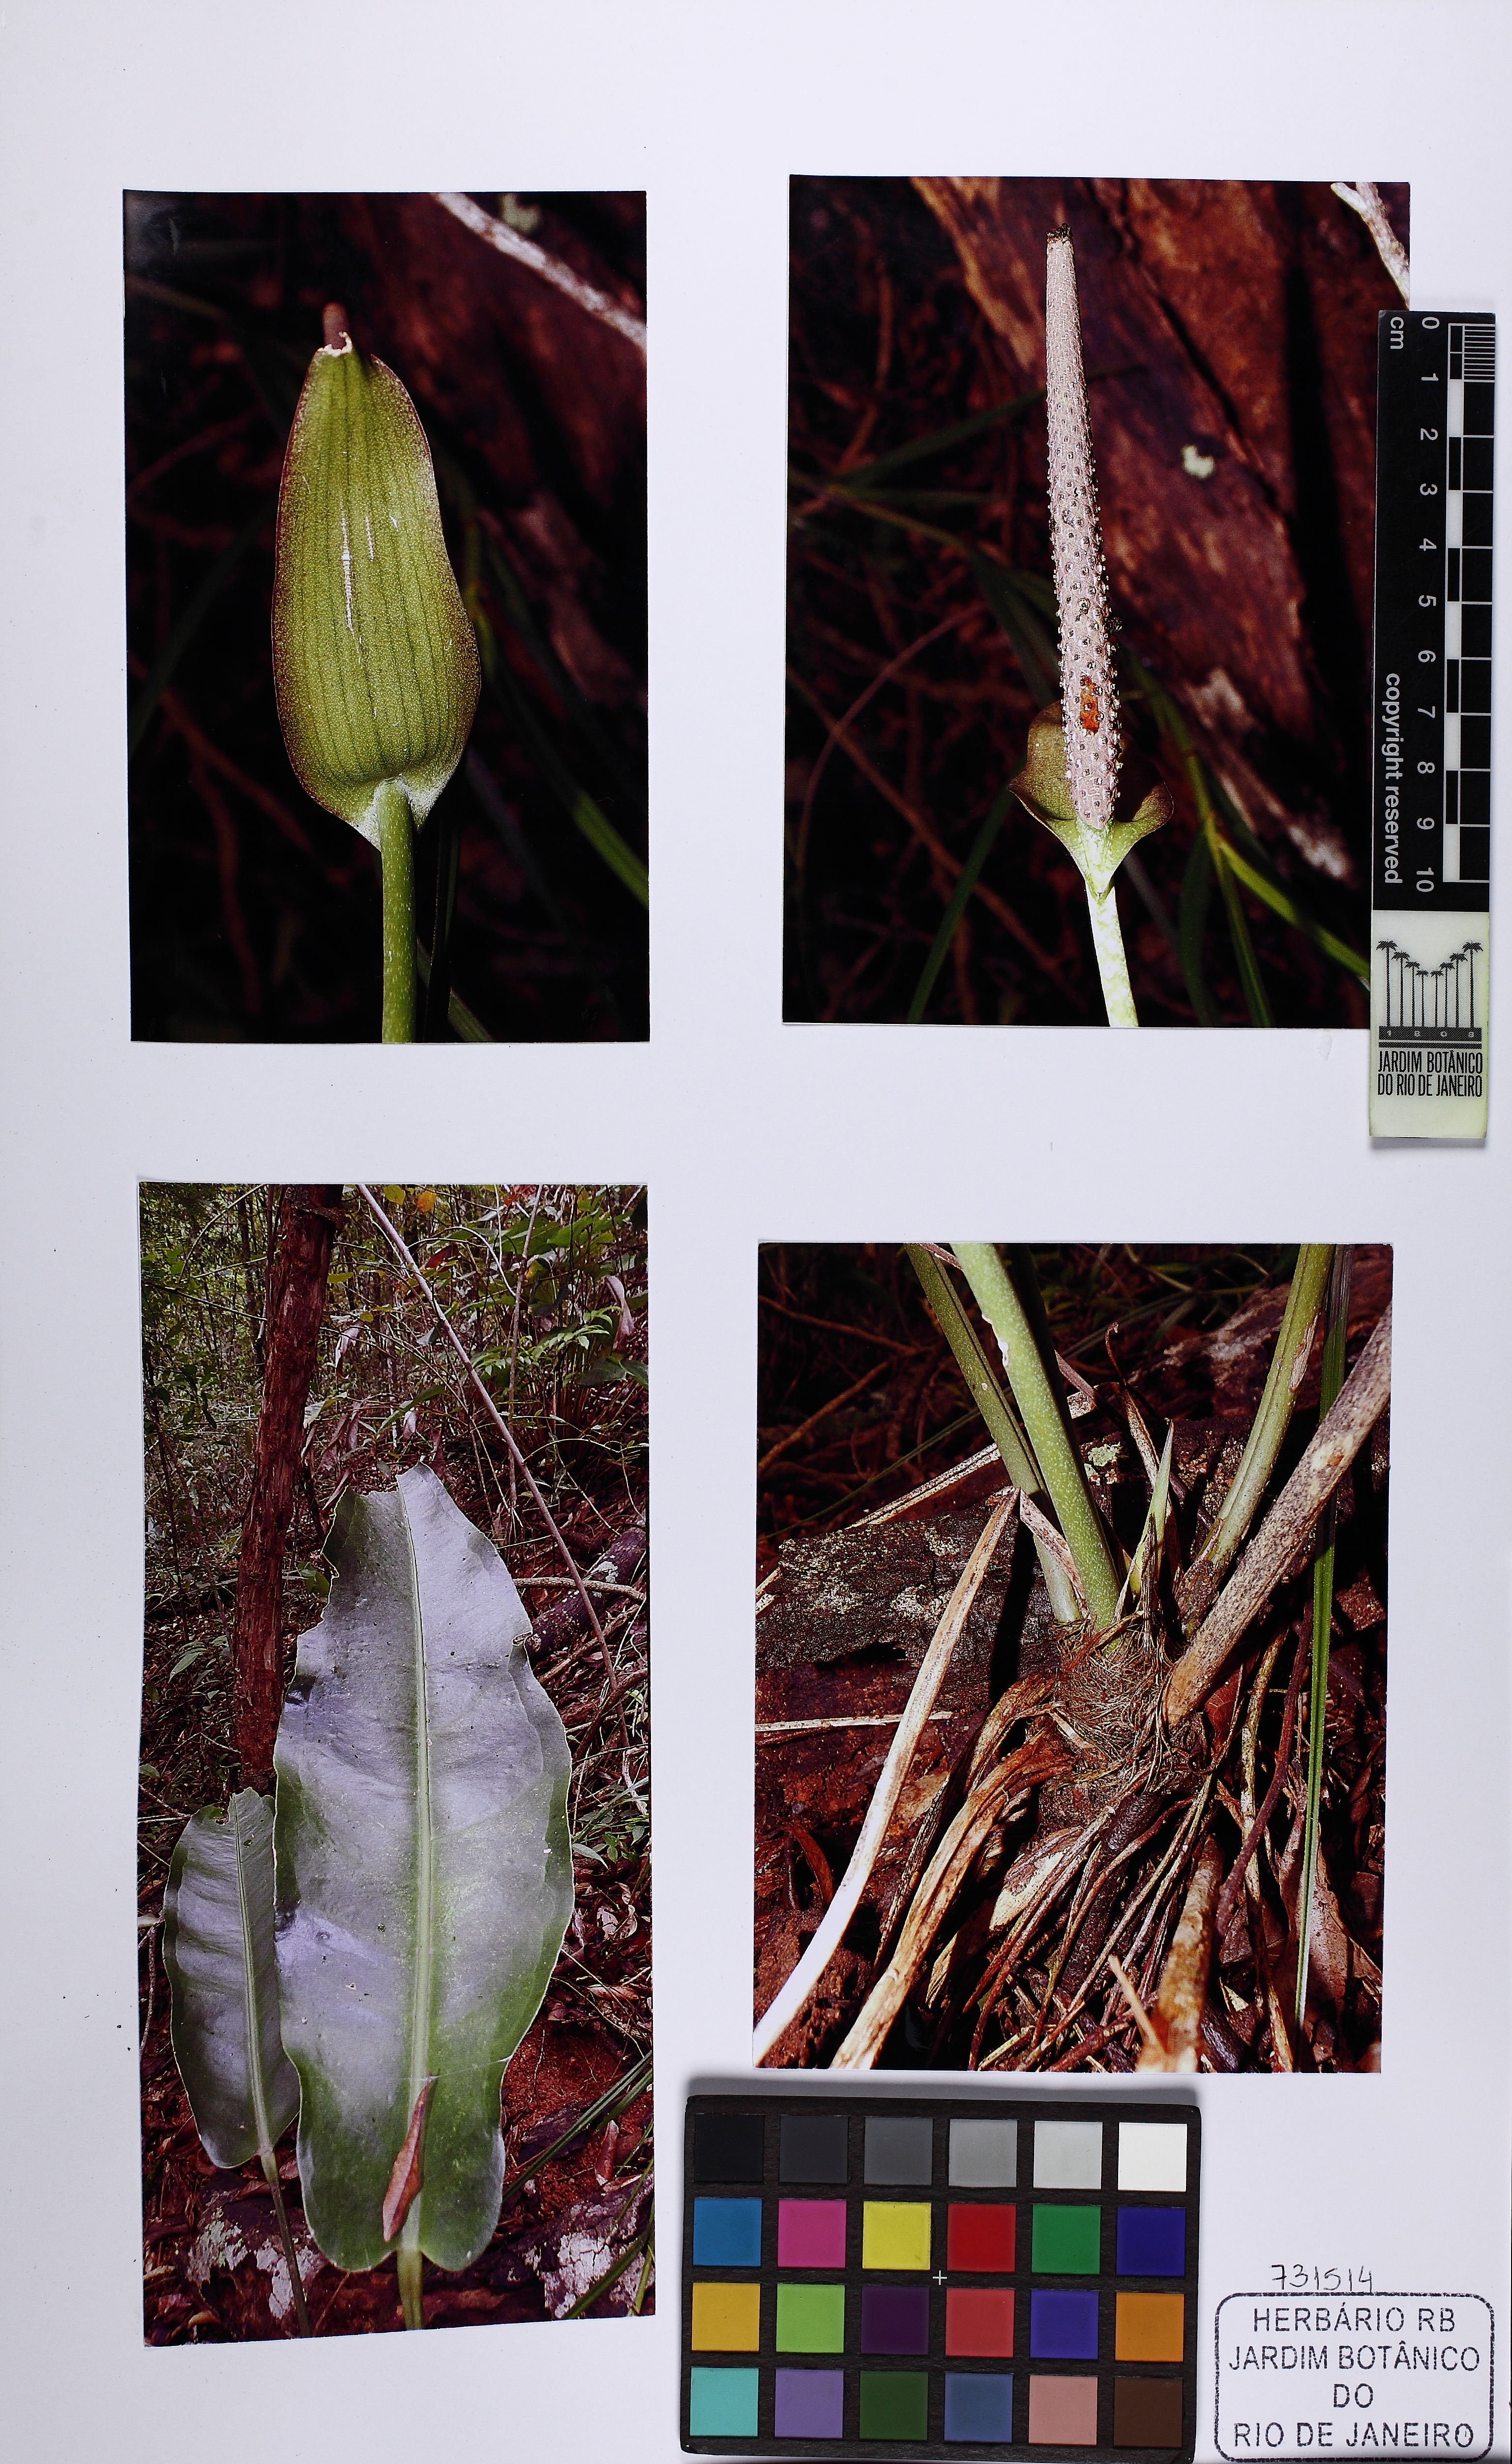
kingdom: Plantae
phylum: Tracheophyta
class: Liliopsida
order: Alismatales
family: Araceae
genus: Anthurium
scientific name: Anthurium
